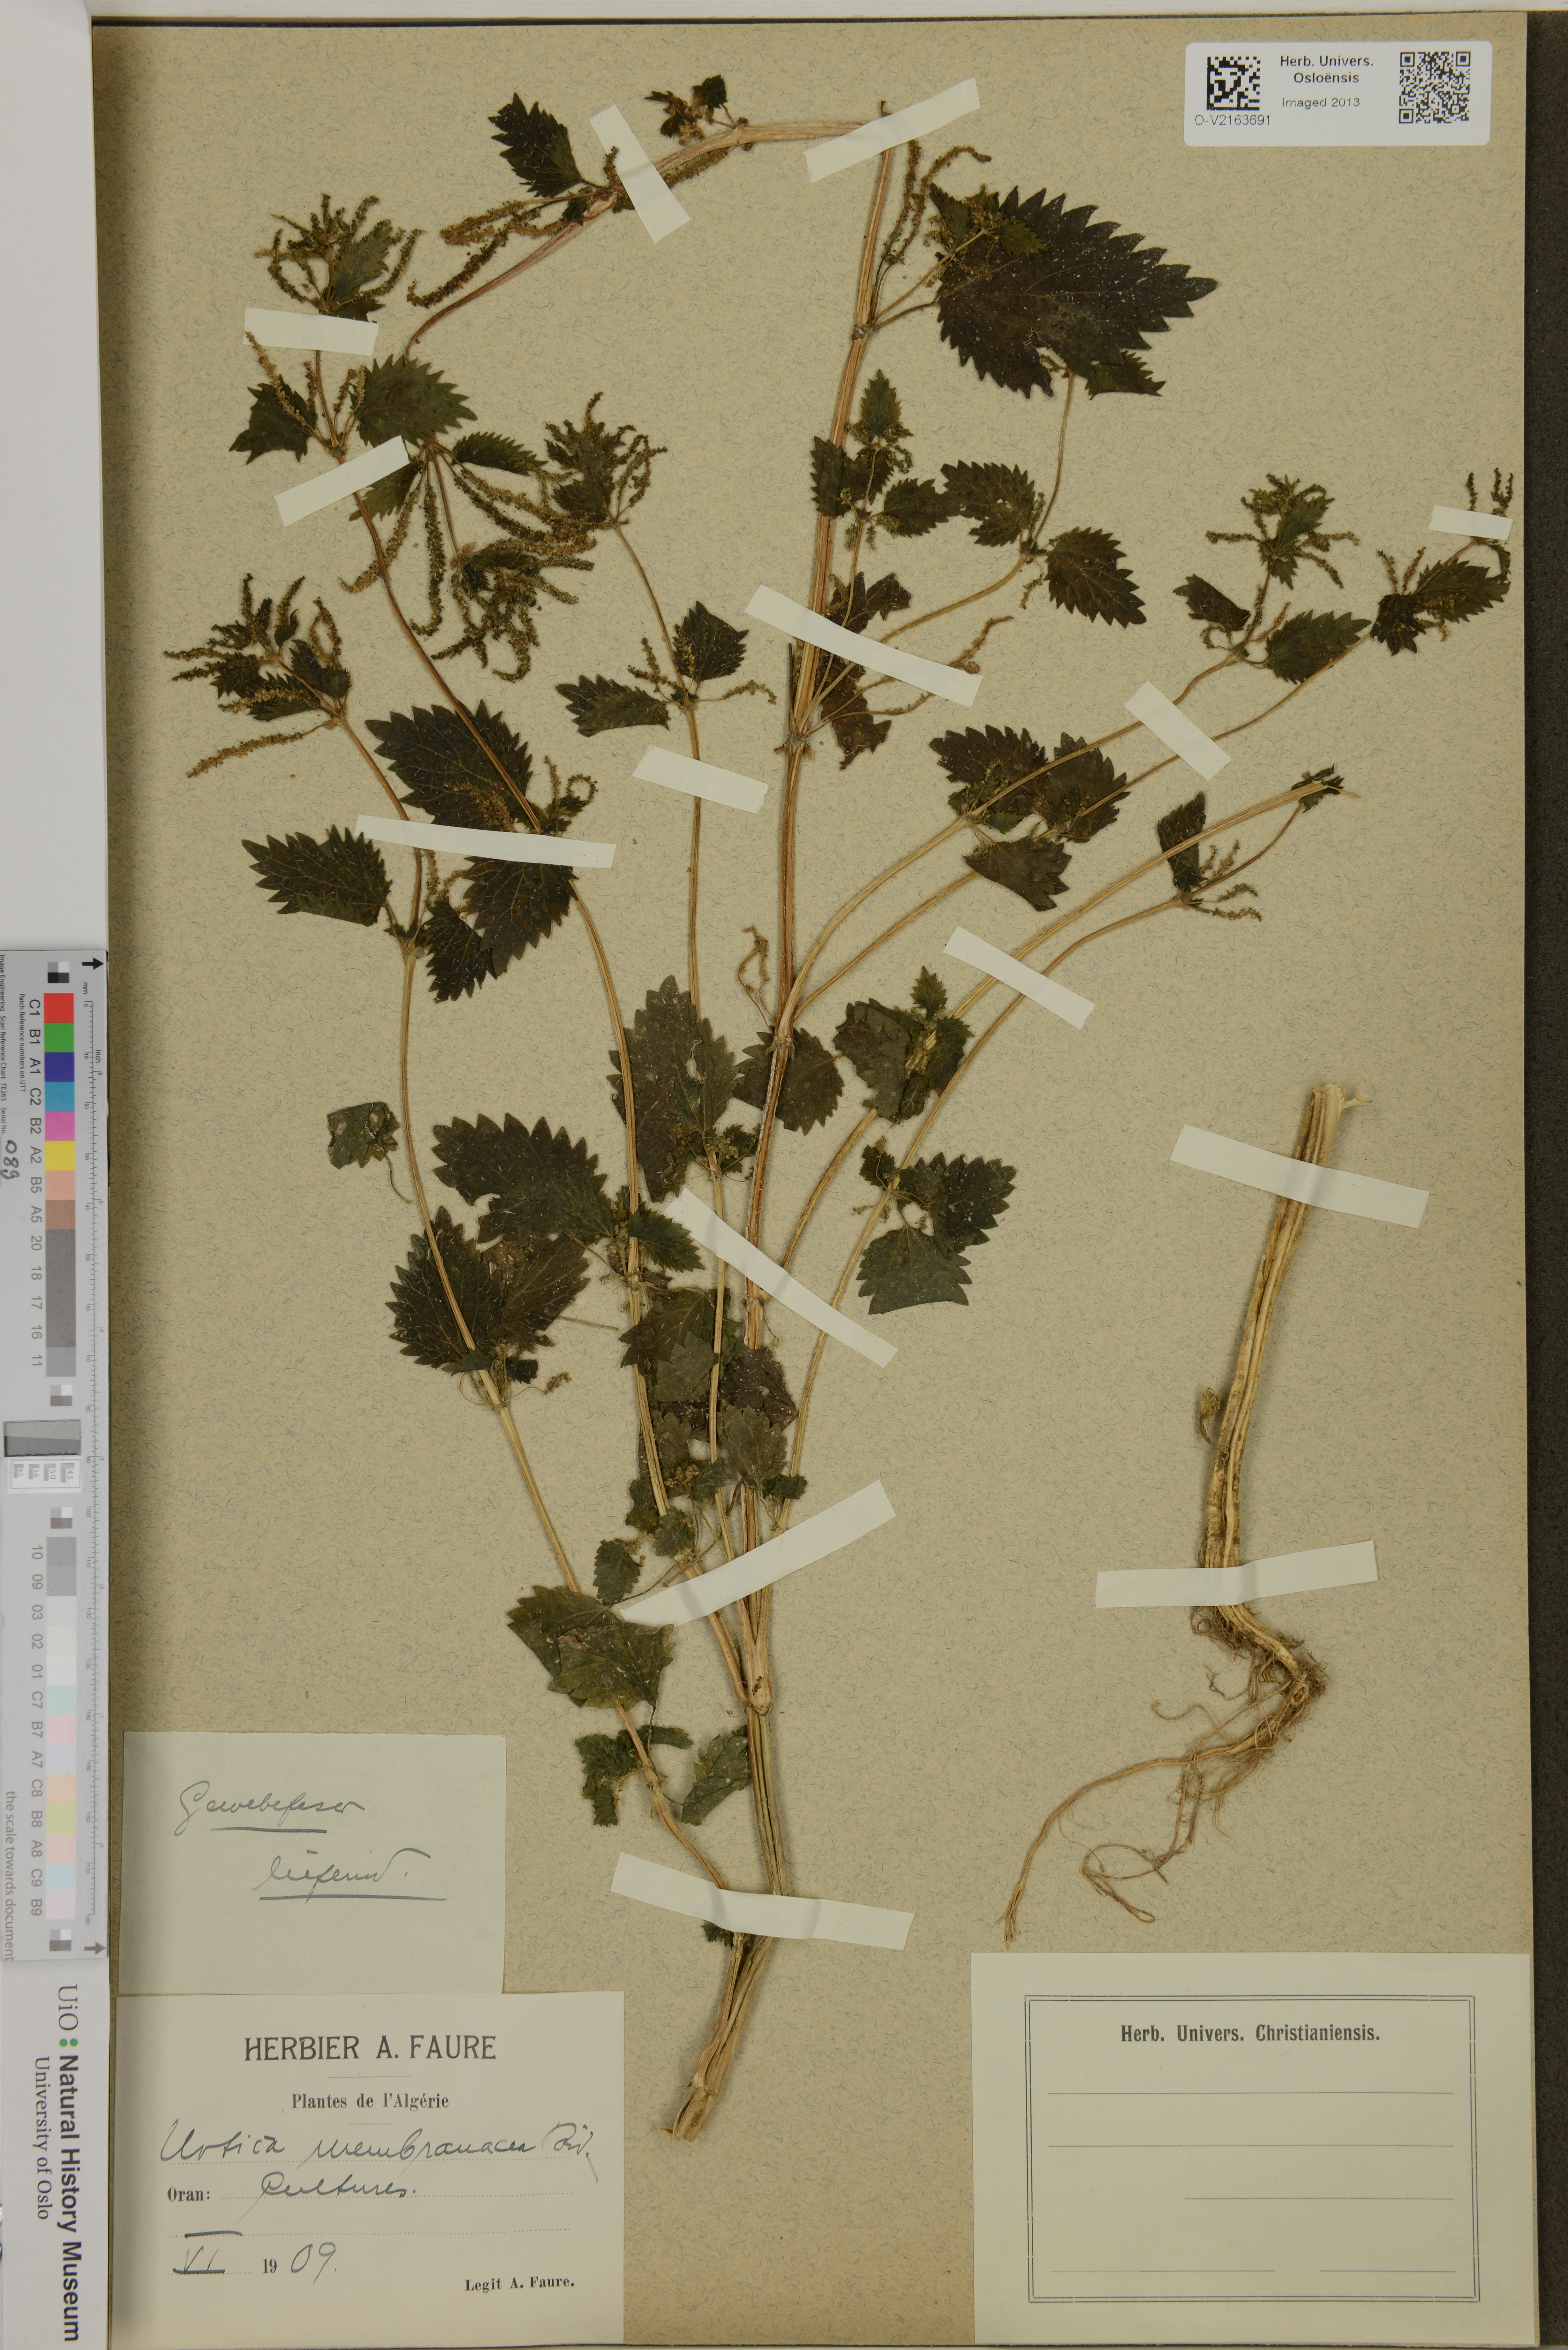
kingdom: Plantae
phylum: Tracheophyta
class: Magnoliopsida
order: Rosales
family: Urticaceae
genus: Urtica
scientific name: Urtica membranacea
